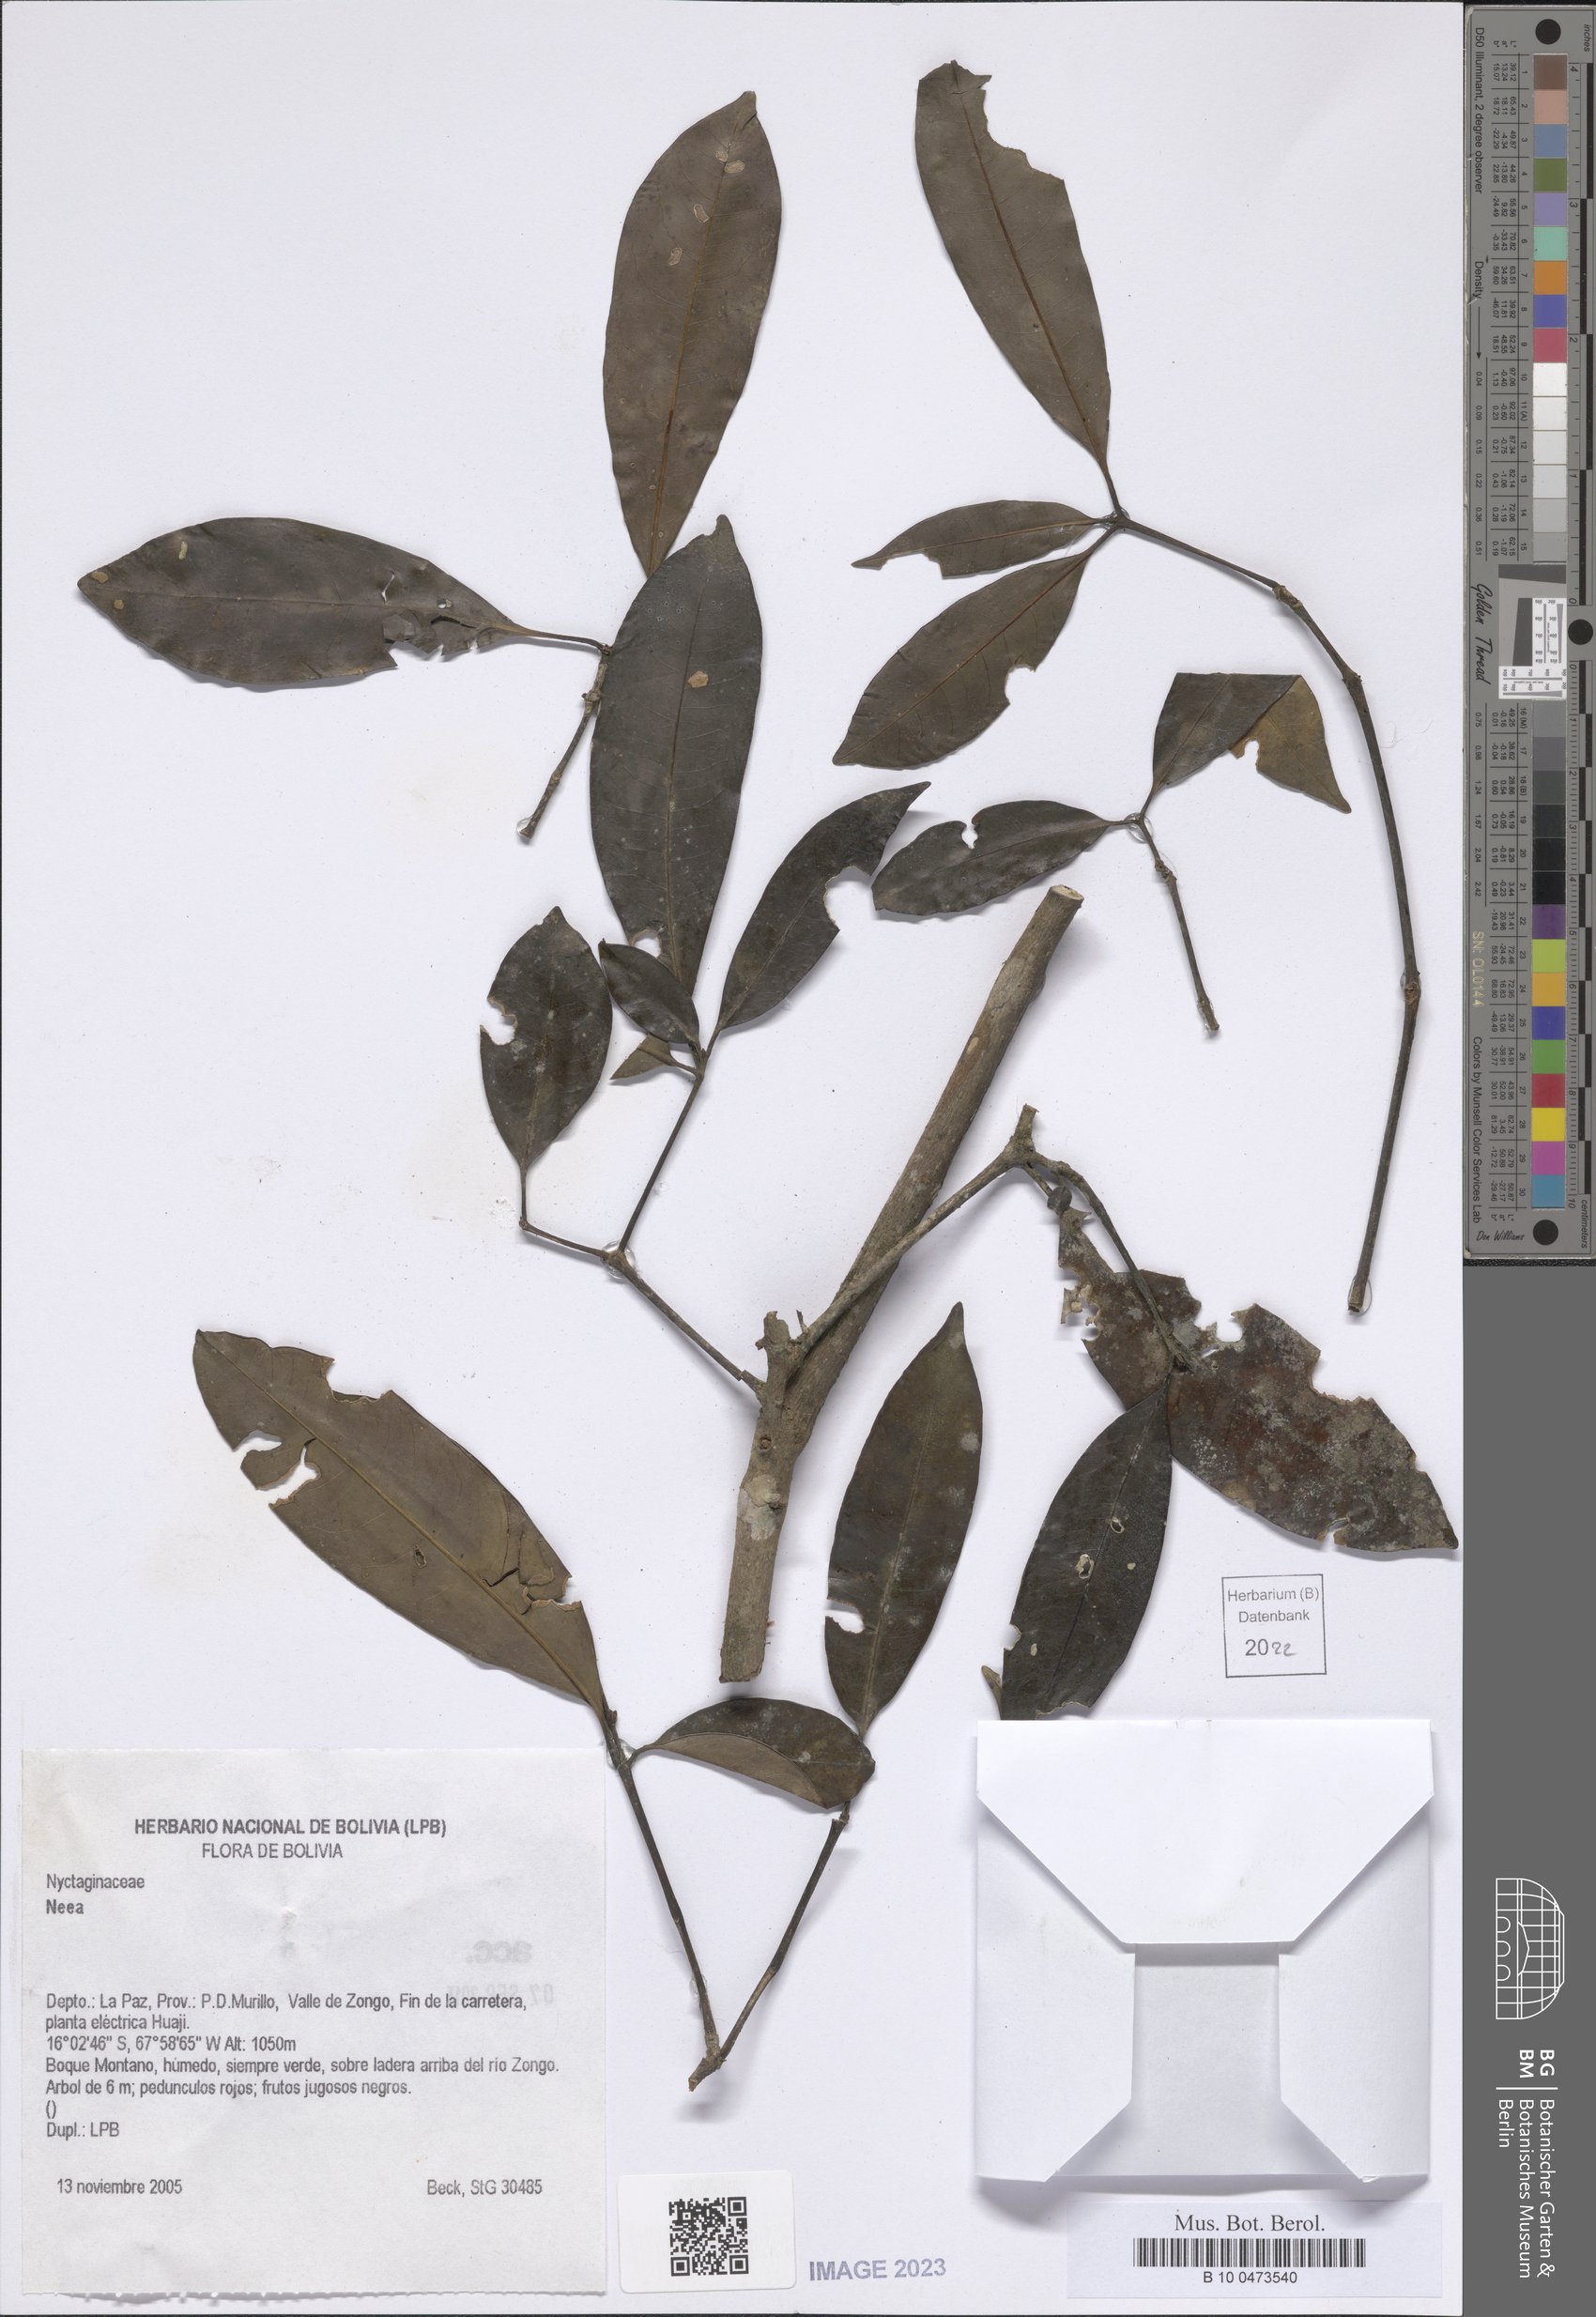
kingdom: Plantae
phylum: Tracheophyta
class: Magnoliopsida
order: Caryophyllales
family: Nyctaginaceae
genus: Neea
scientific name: Neea
